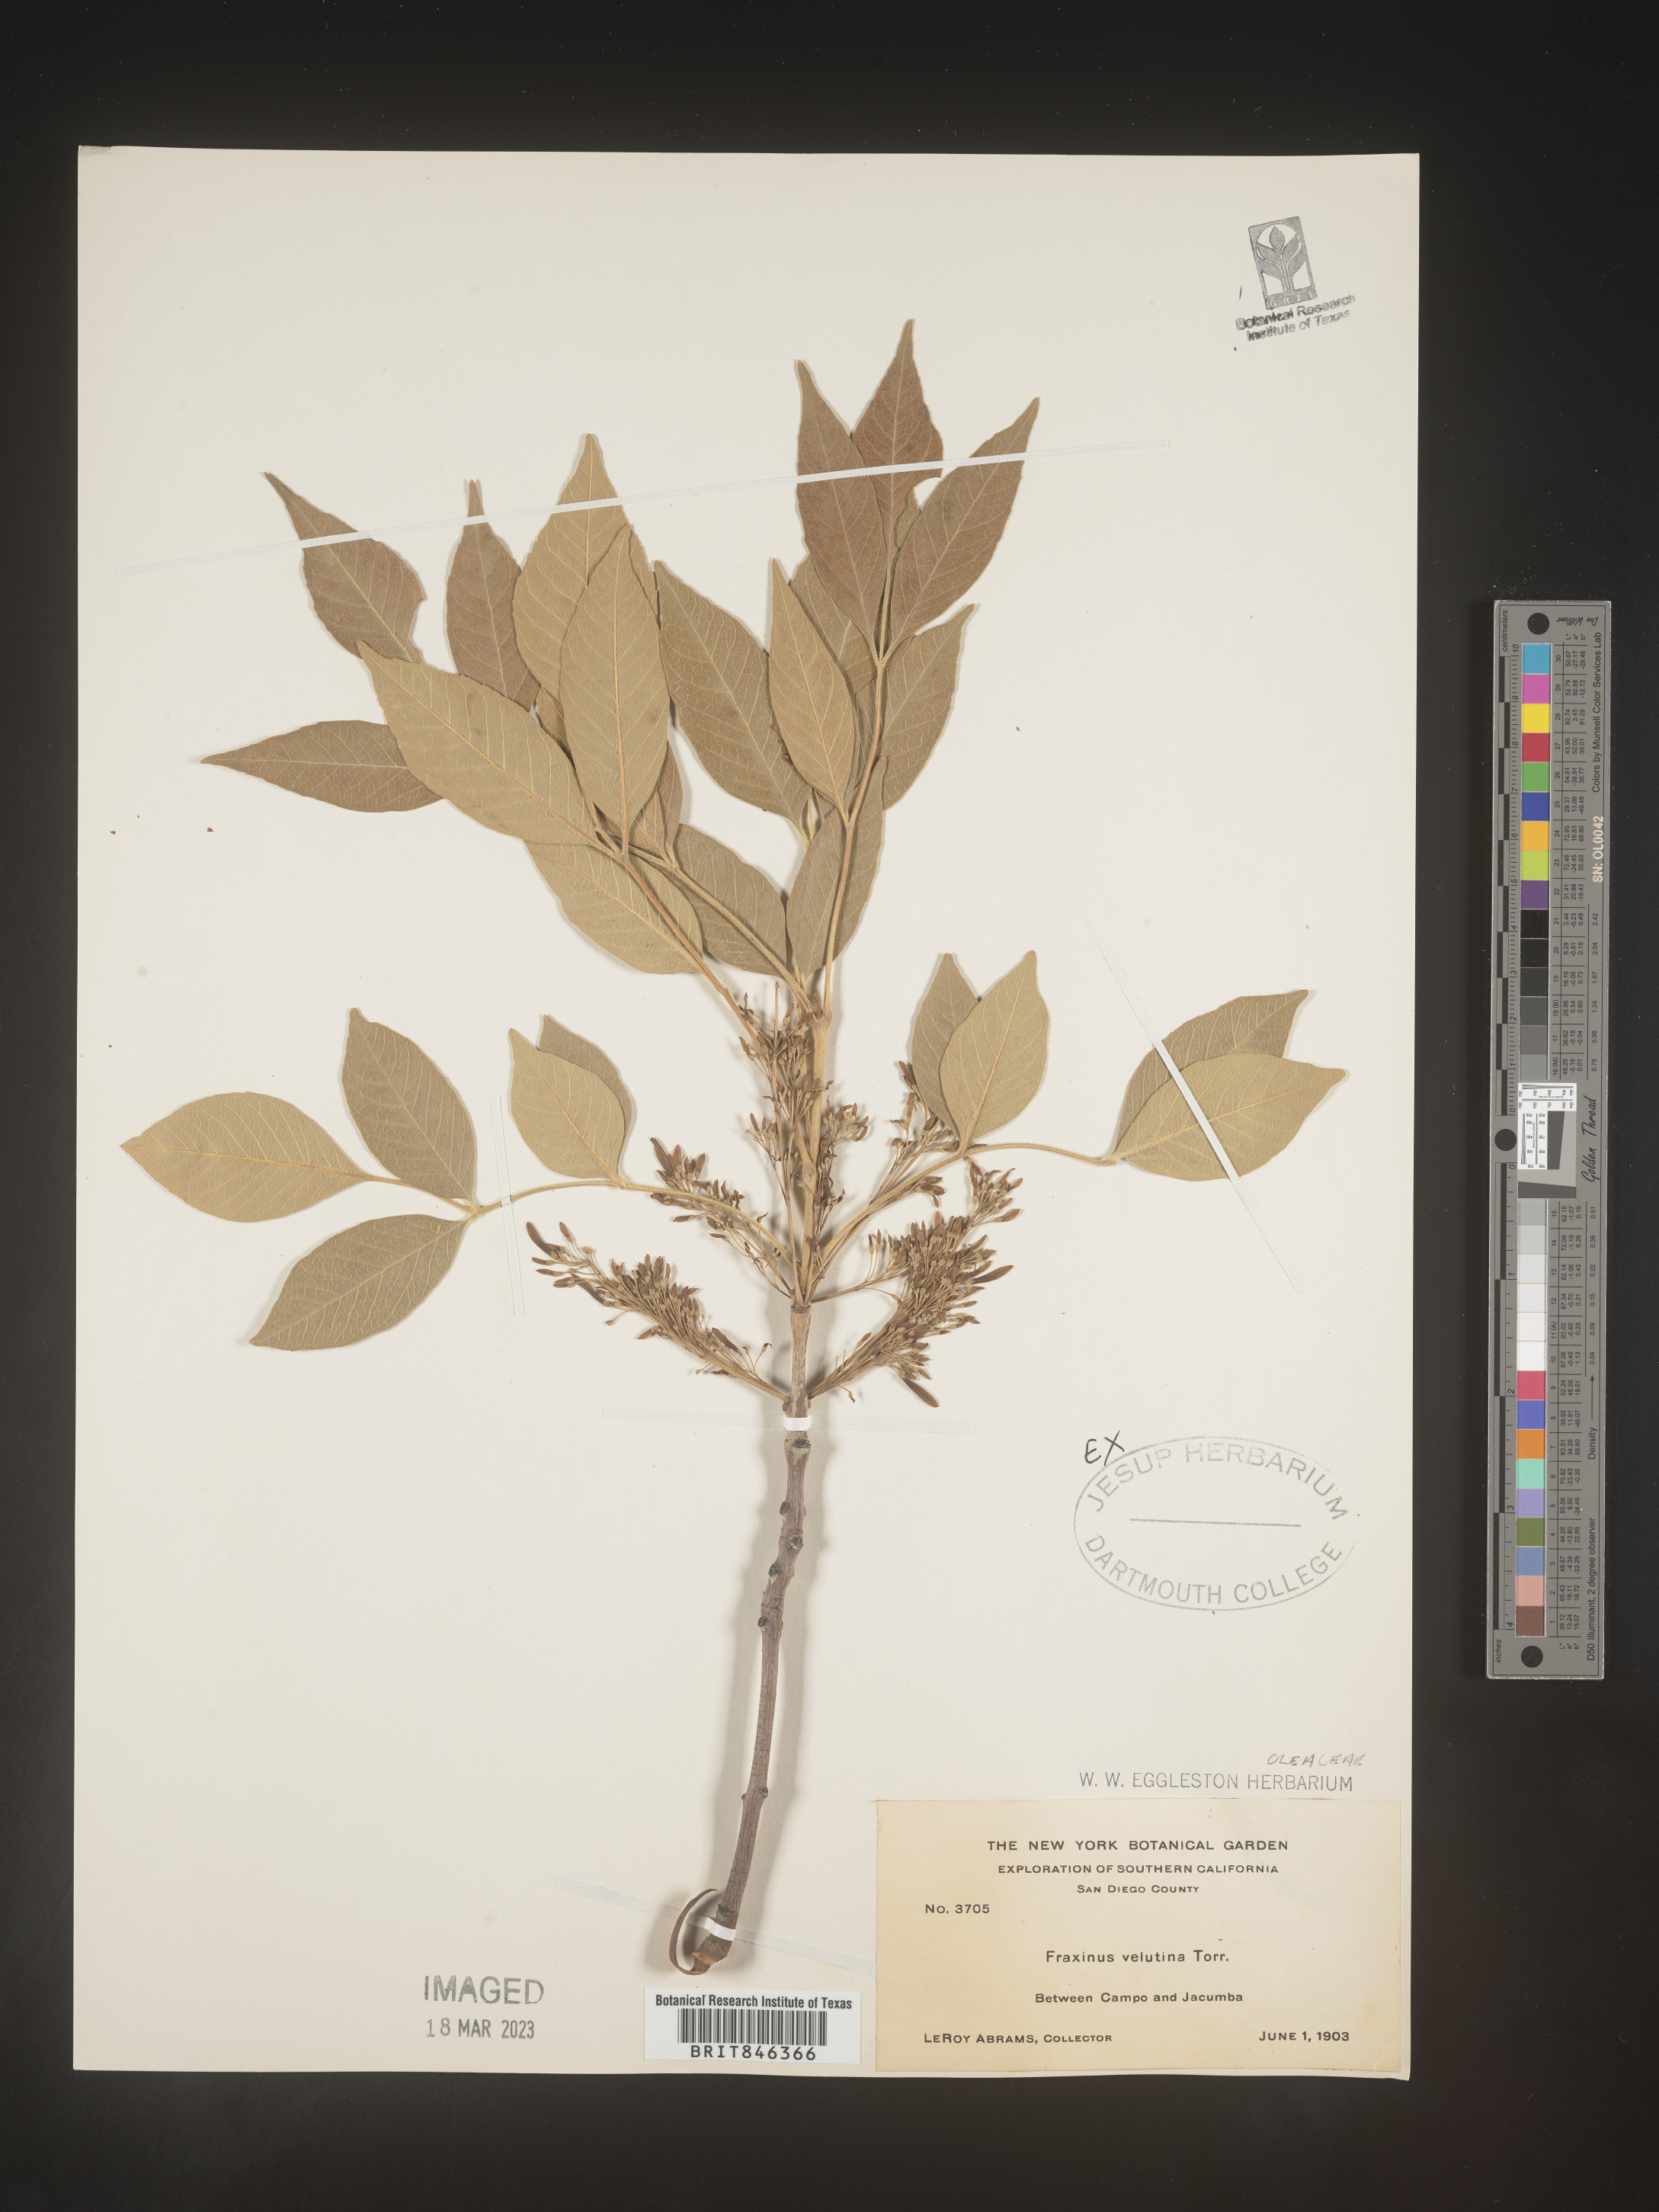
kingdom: Plantae
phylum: Tracheophyta
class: Magnoliopsida
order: Lamiales
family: Oleaceae
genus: Fraxinus
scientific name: Fraxinus velutina
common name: Arizon ash
